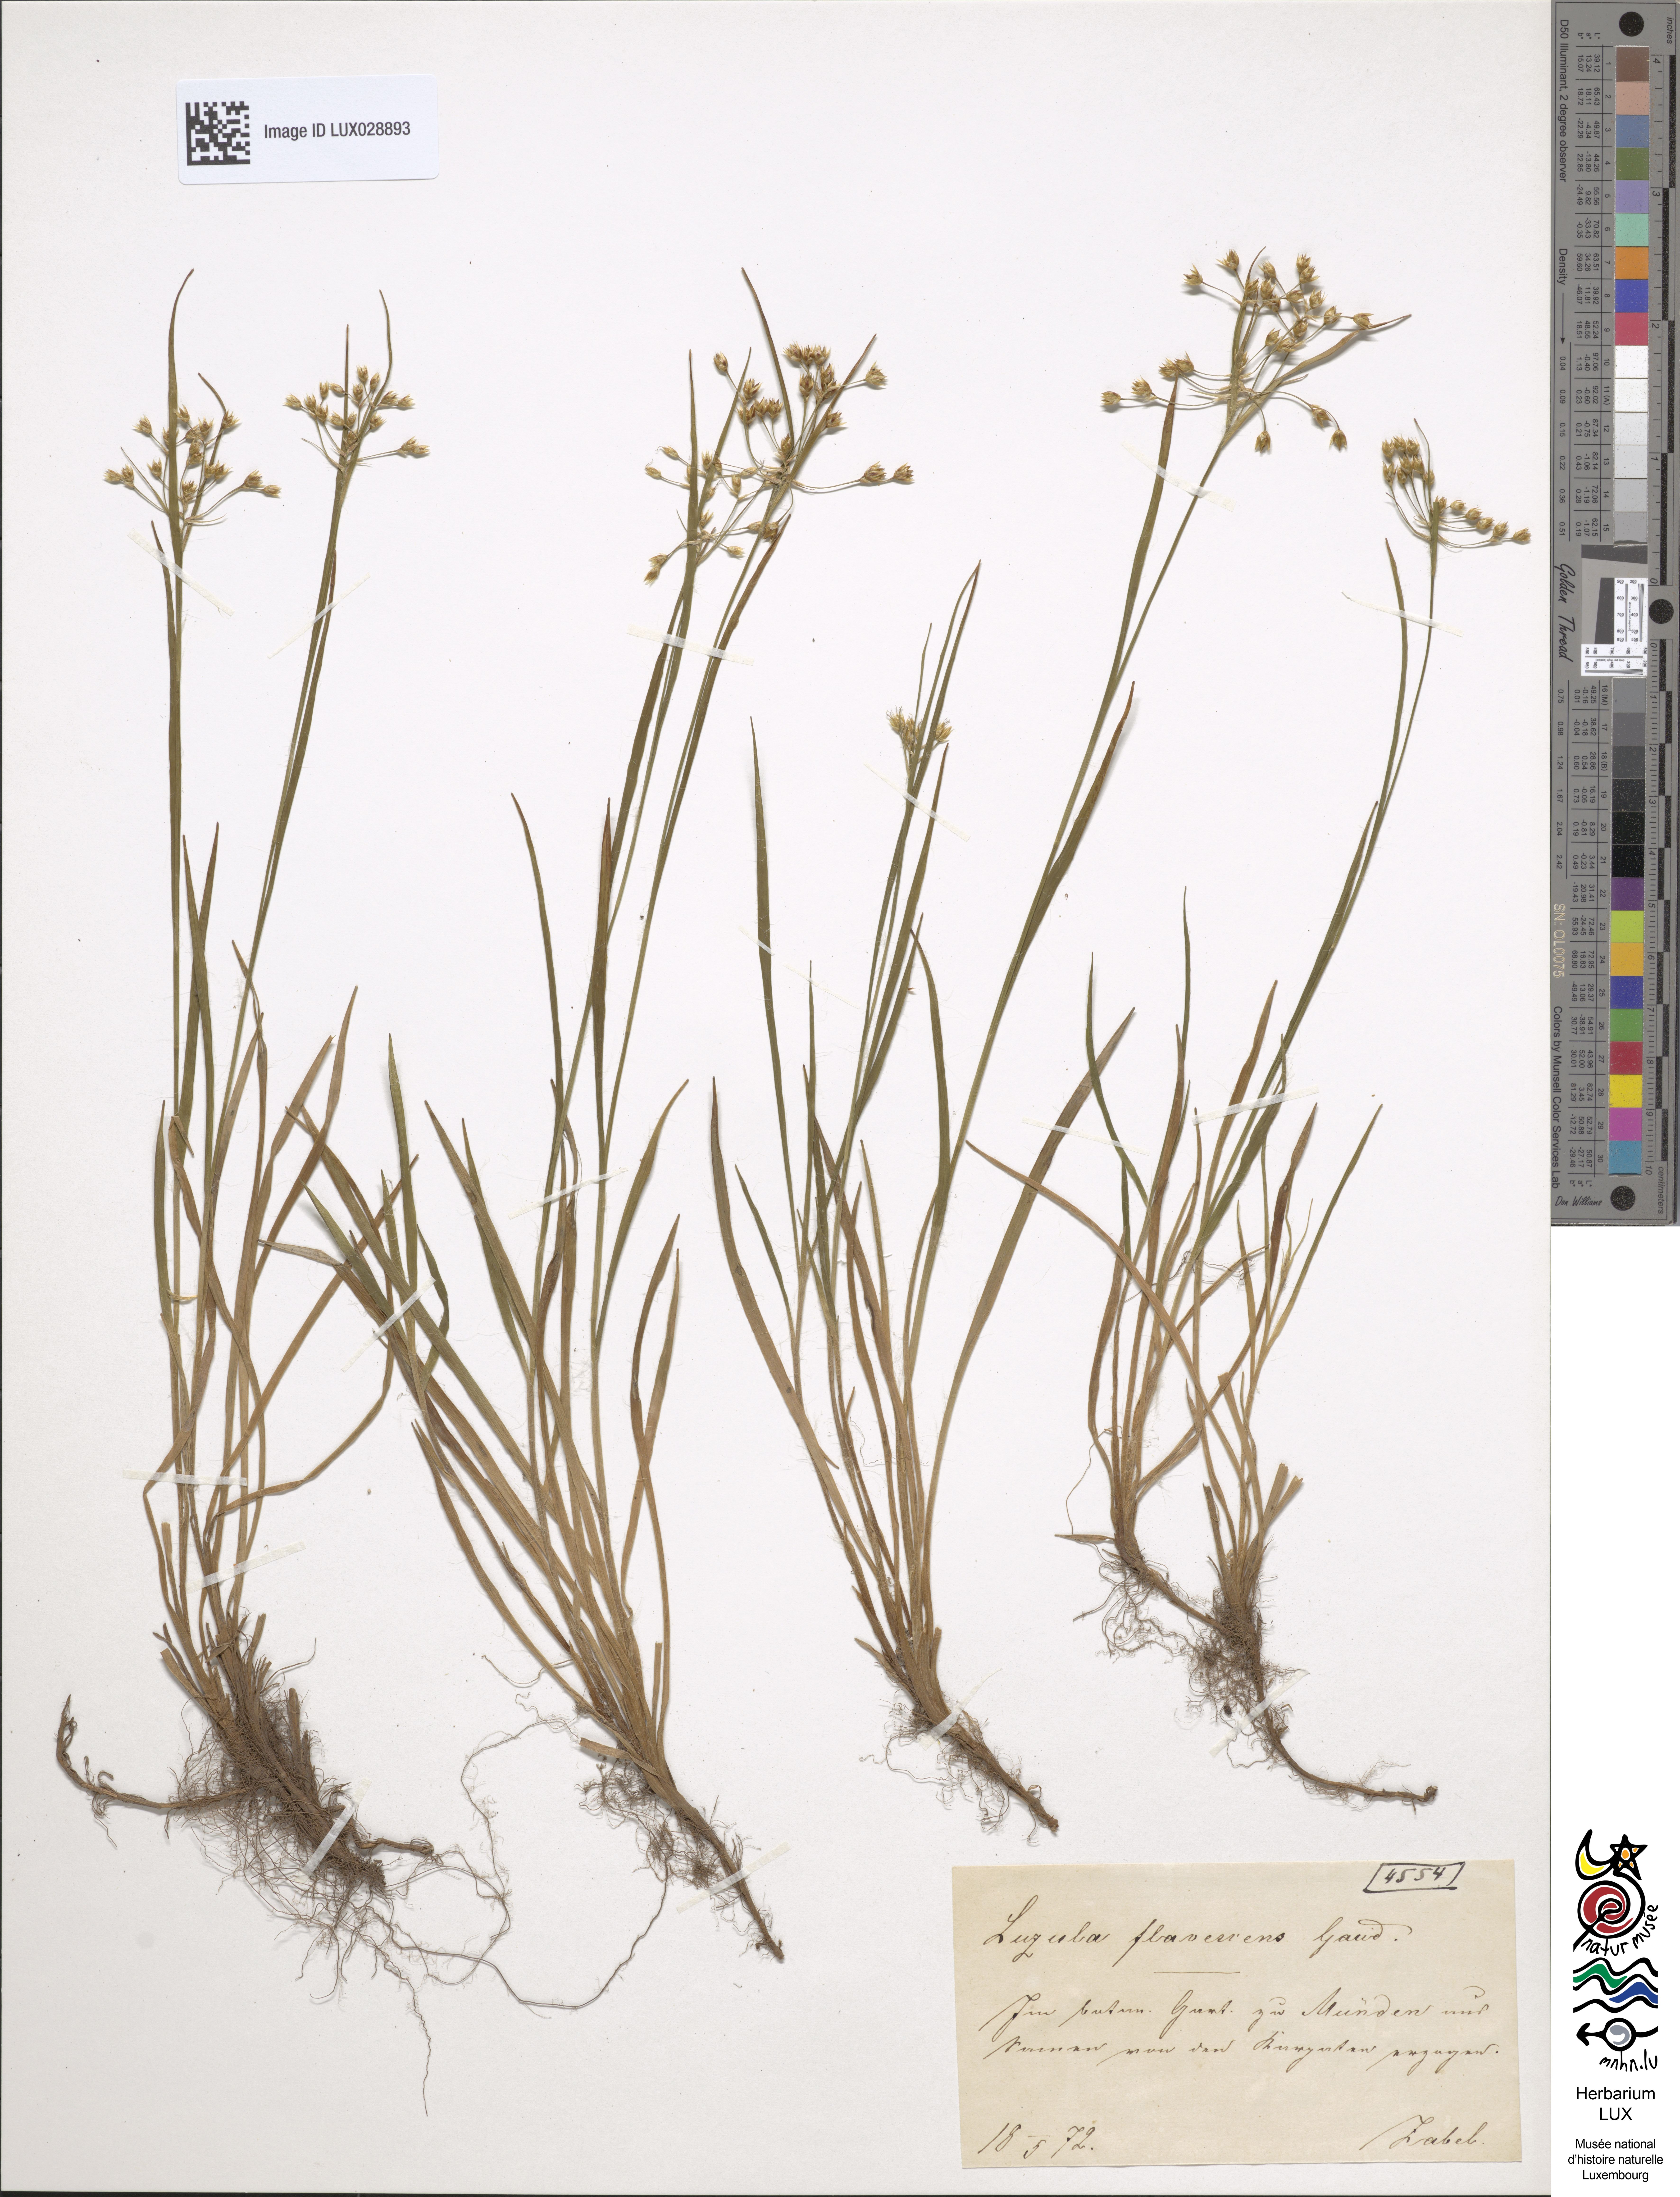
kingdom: Plantae
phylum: Tracheophyta
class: Liliopsida
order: Poales
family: Juncaceae
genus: Luzula
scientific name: Luzula luzulina
